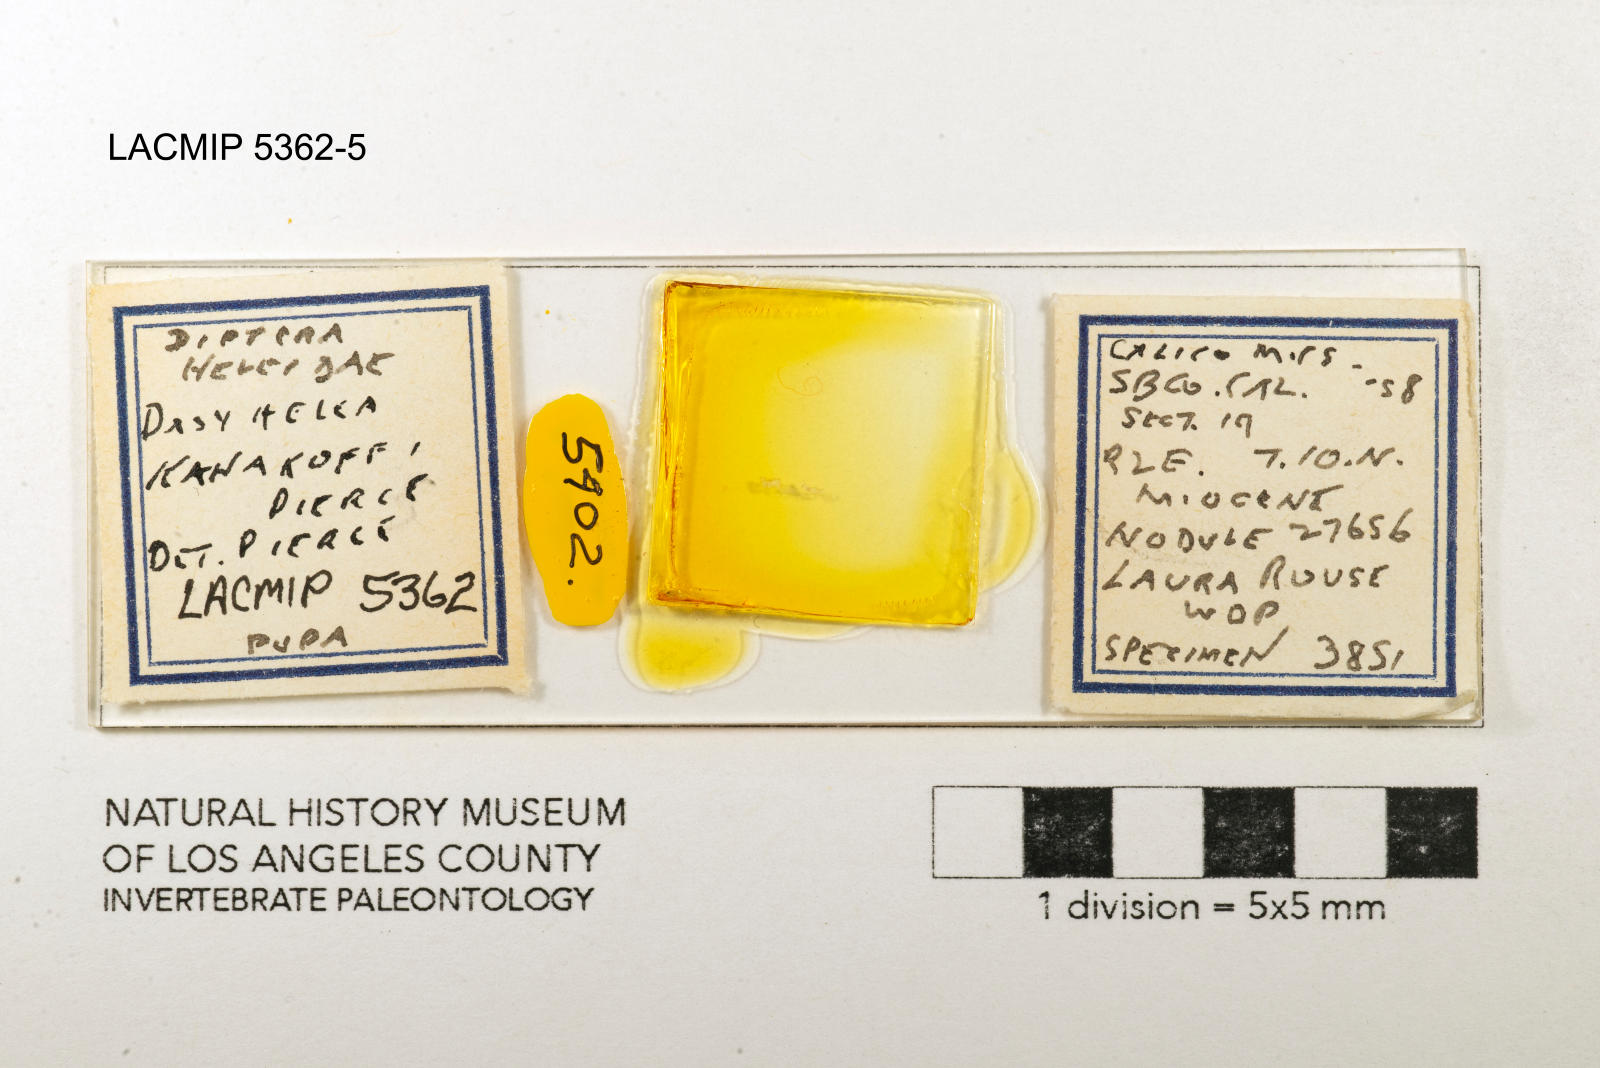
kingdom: Animalia
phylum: Arthropoda
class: Insecta
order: Diptera
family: Ceratopogonidae
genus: Dasyhelea
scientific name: Dasyhelea kanakoffi
